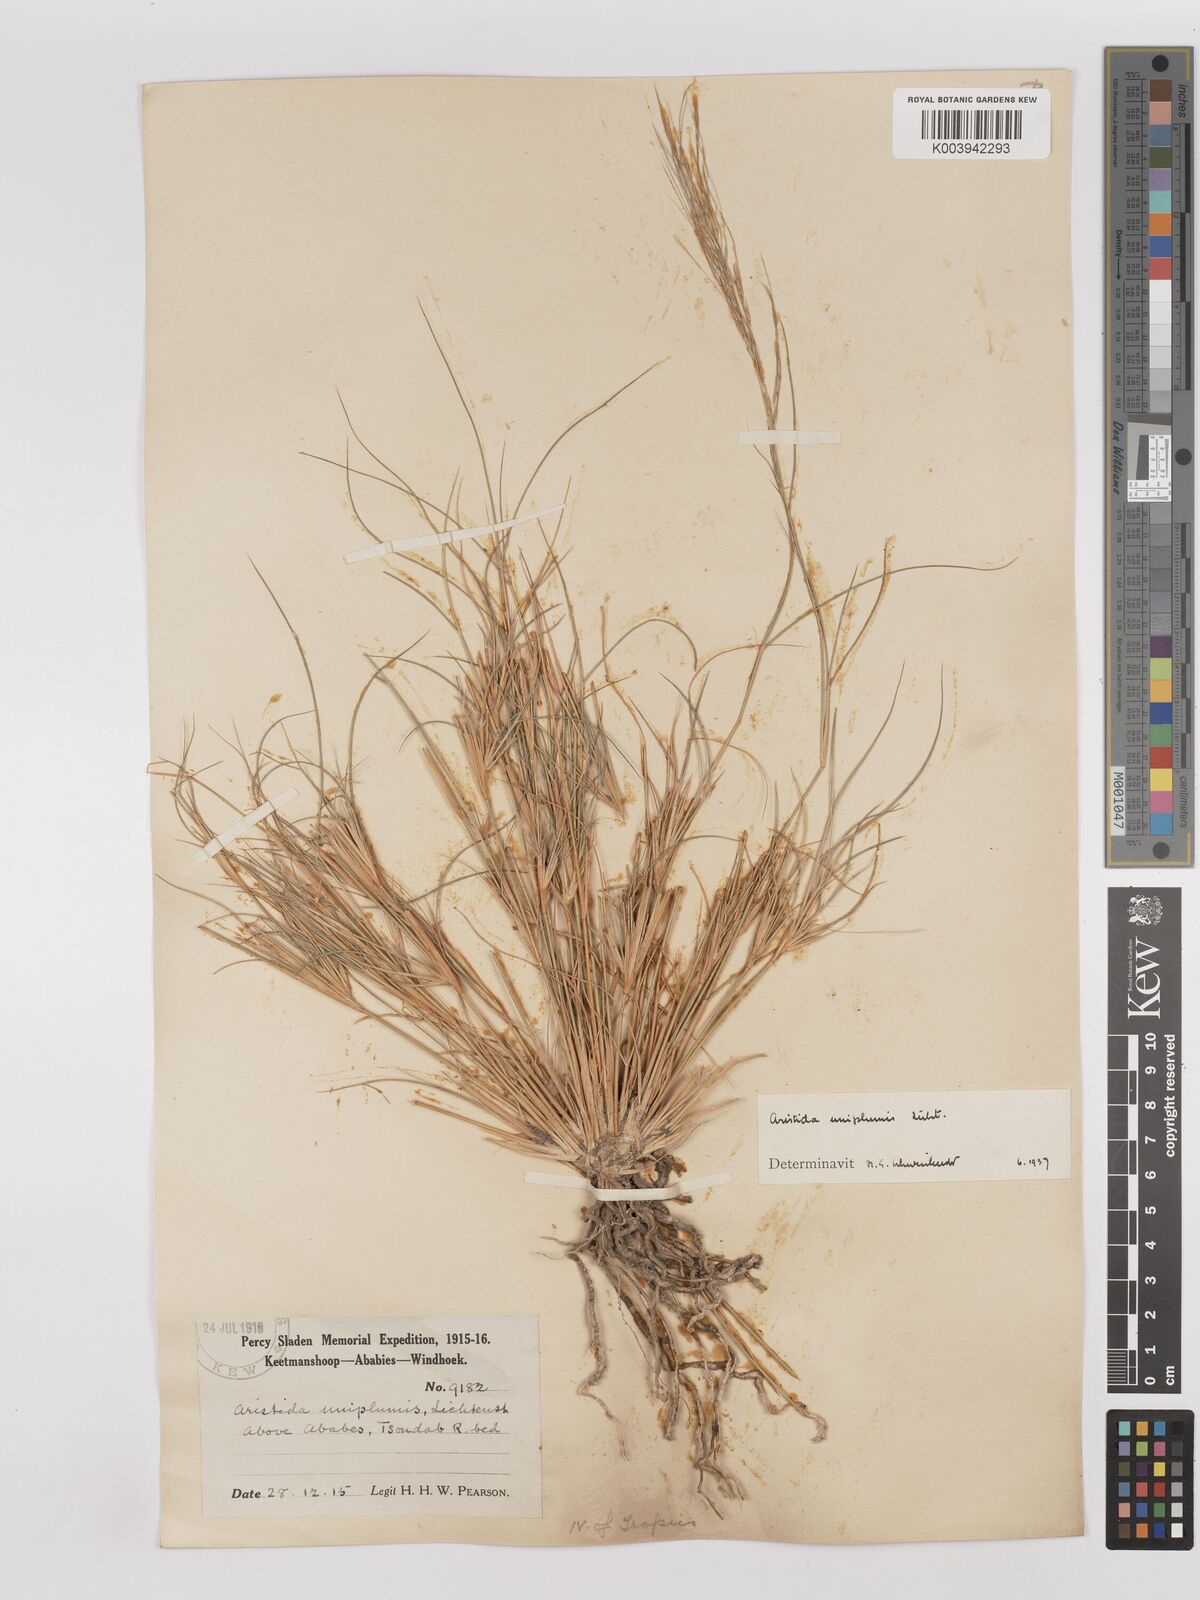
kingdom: Plantae
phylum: Tracheophyta
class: Liliopsida
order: Poales
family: Poaceae
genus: Stipagrostis
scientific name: Stipagrostis uniplumis
